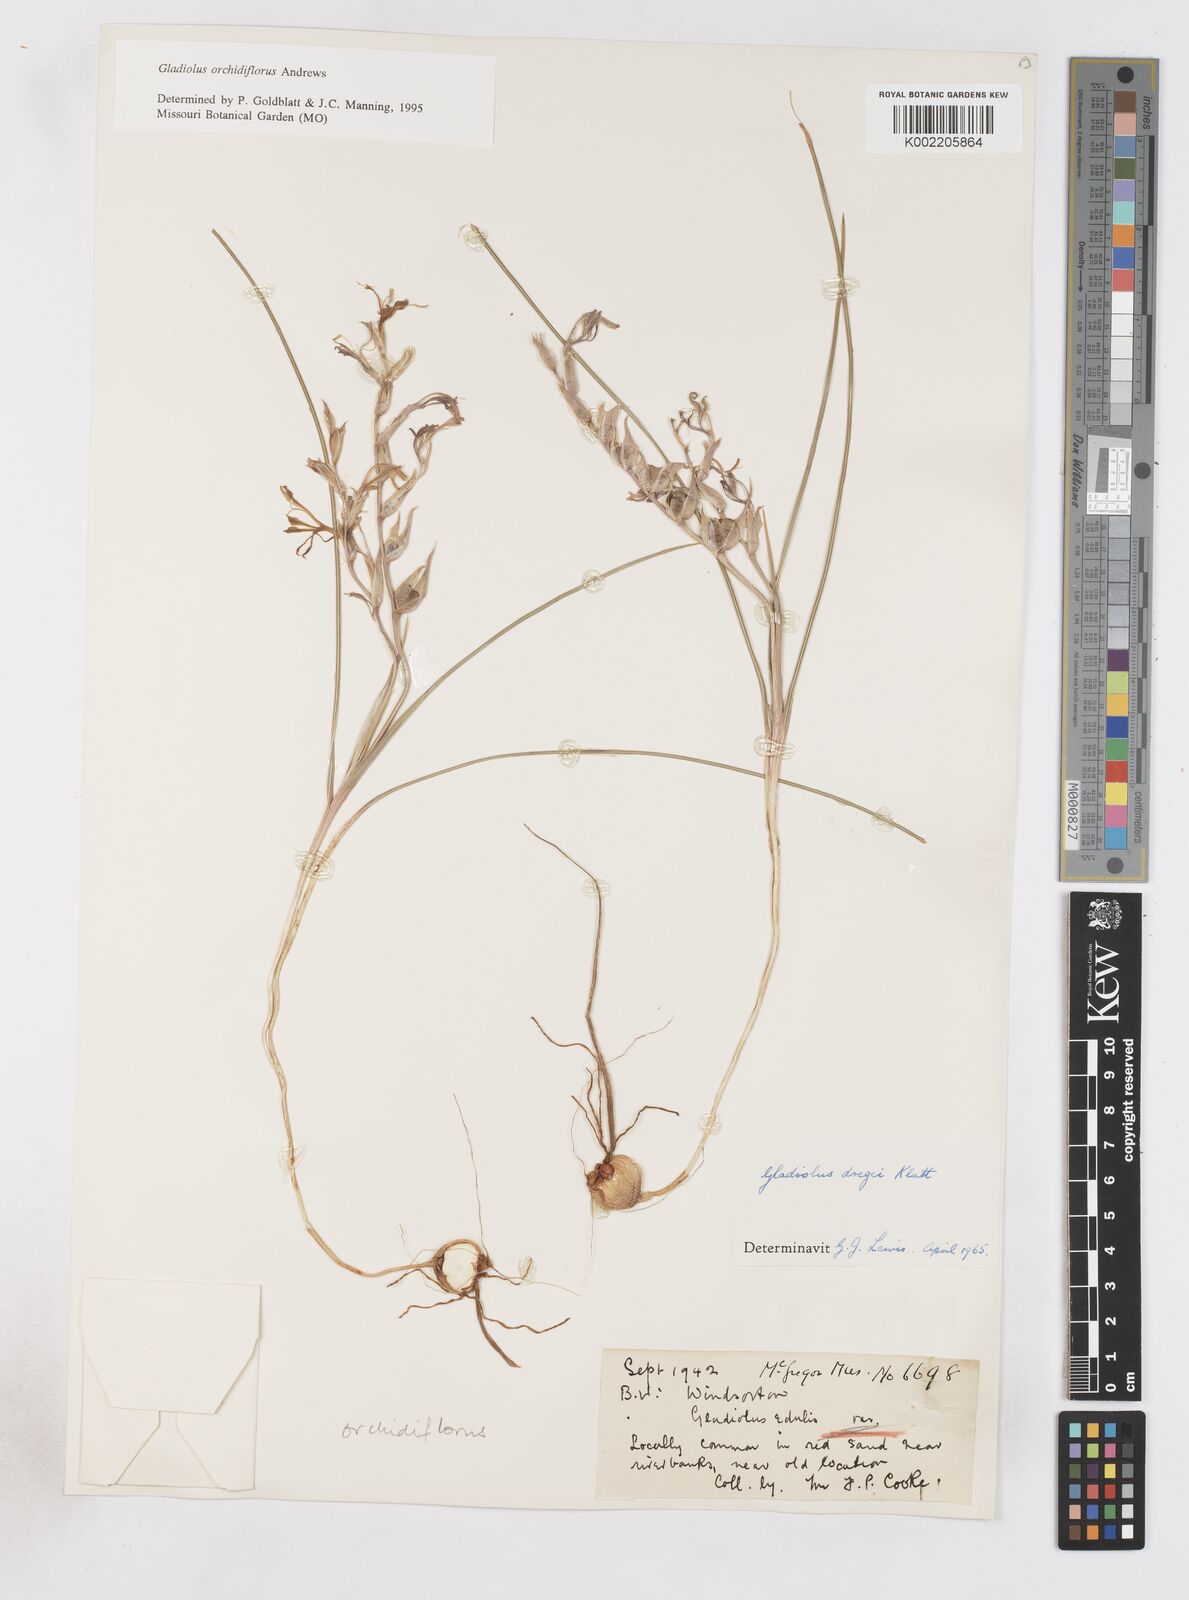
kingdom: Plantae
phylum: Tracheophyta
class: Liliopsida
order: Asparagales
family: Iridaceae
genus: Gladiolus
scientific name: Gladiolus orchidiflorus
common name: Gray kalkoentjie
